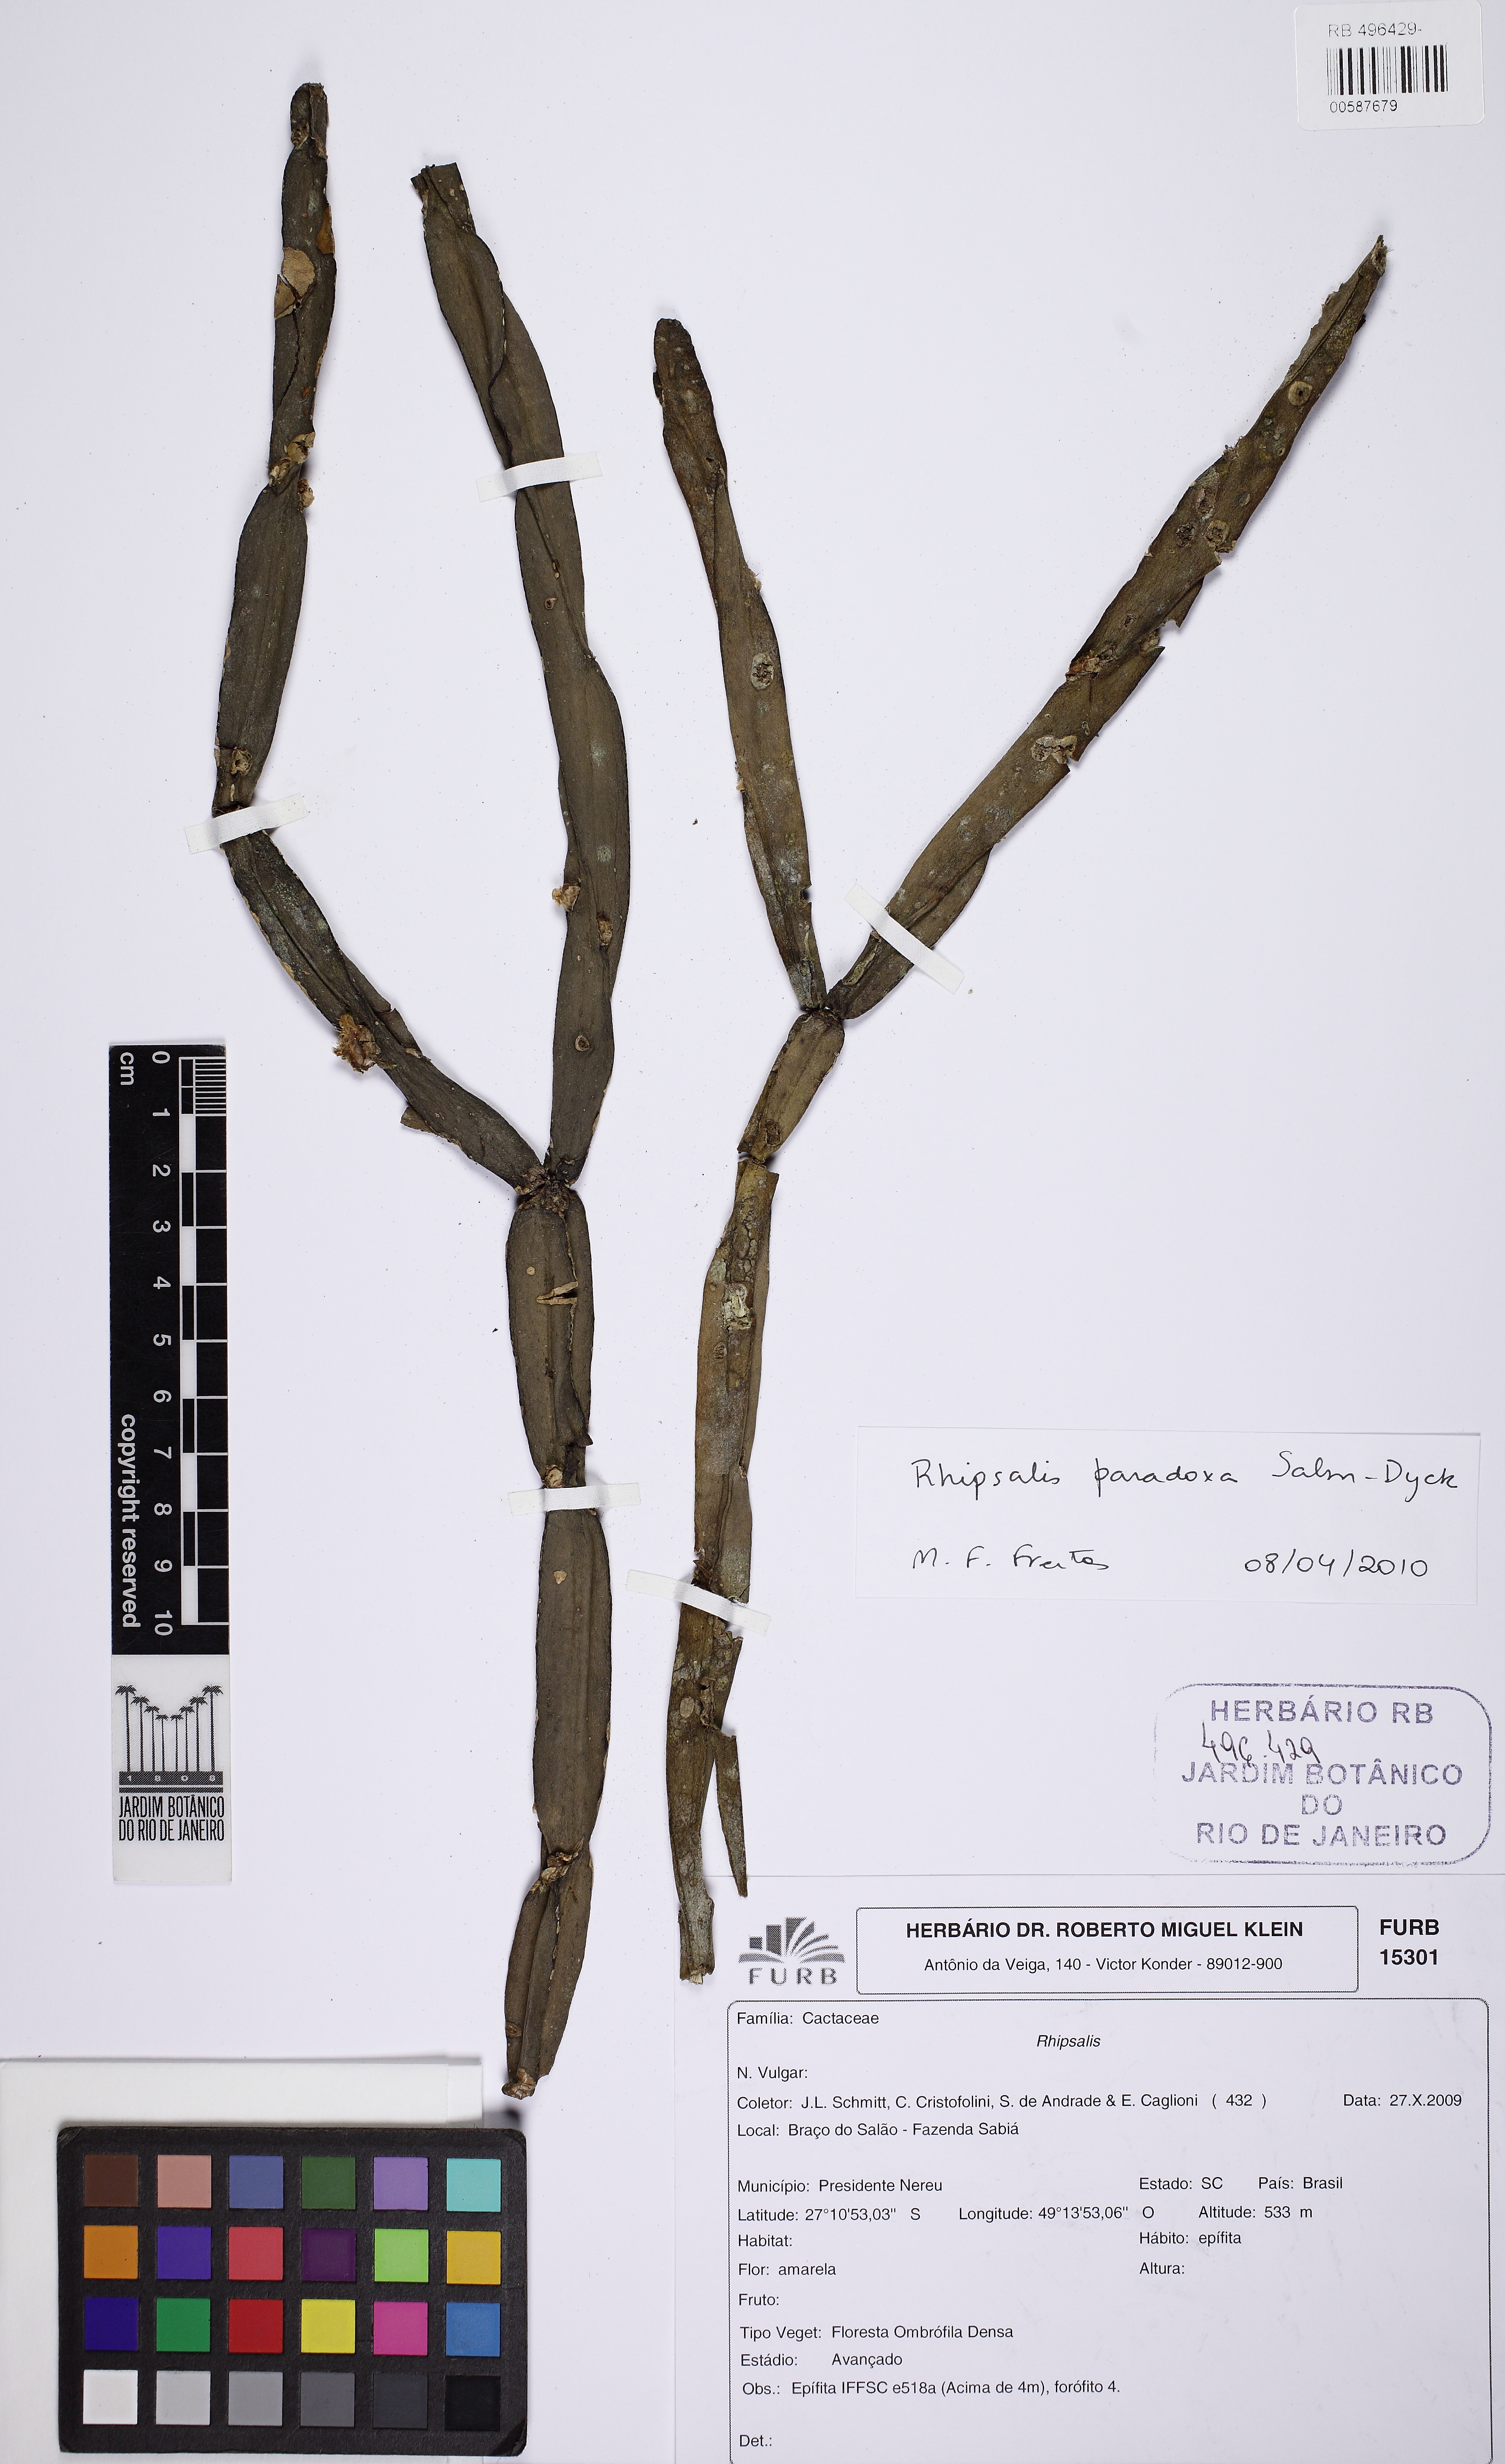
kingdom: Plantae
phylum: Tracheophyta
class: Magnoliopsida
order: Caryophyllales
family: Cactaceae
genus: Rhipsalis
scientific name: Rhipsalis paradoxa
